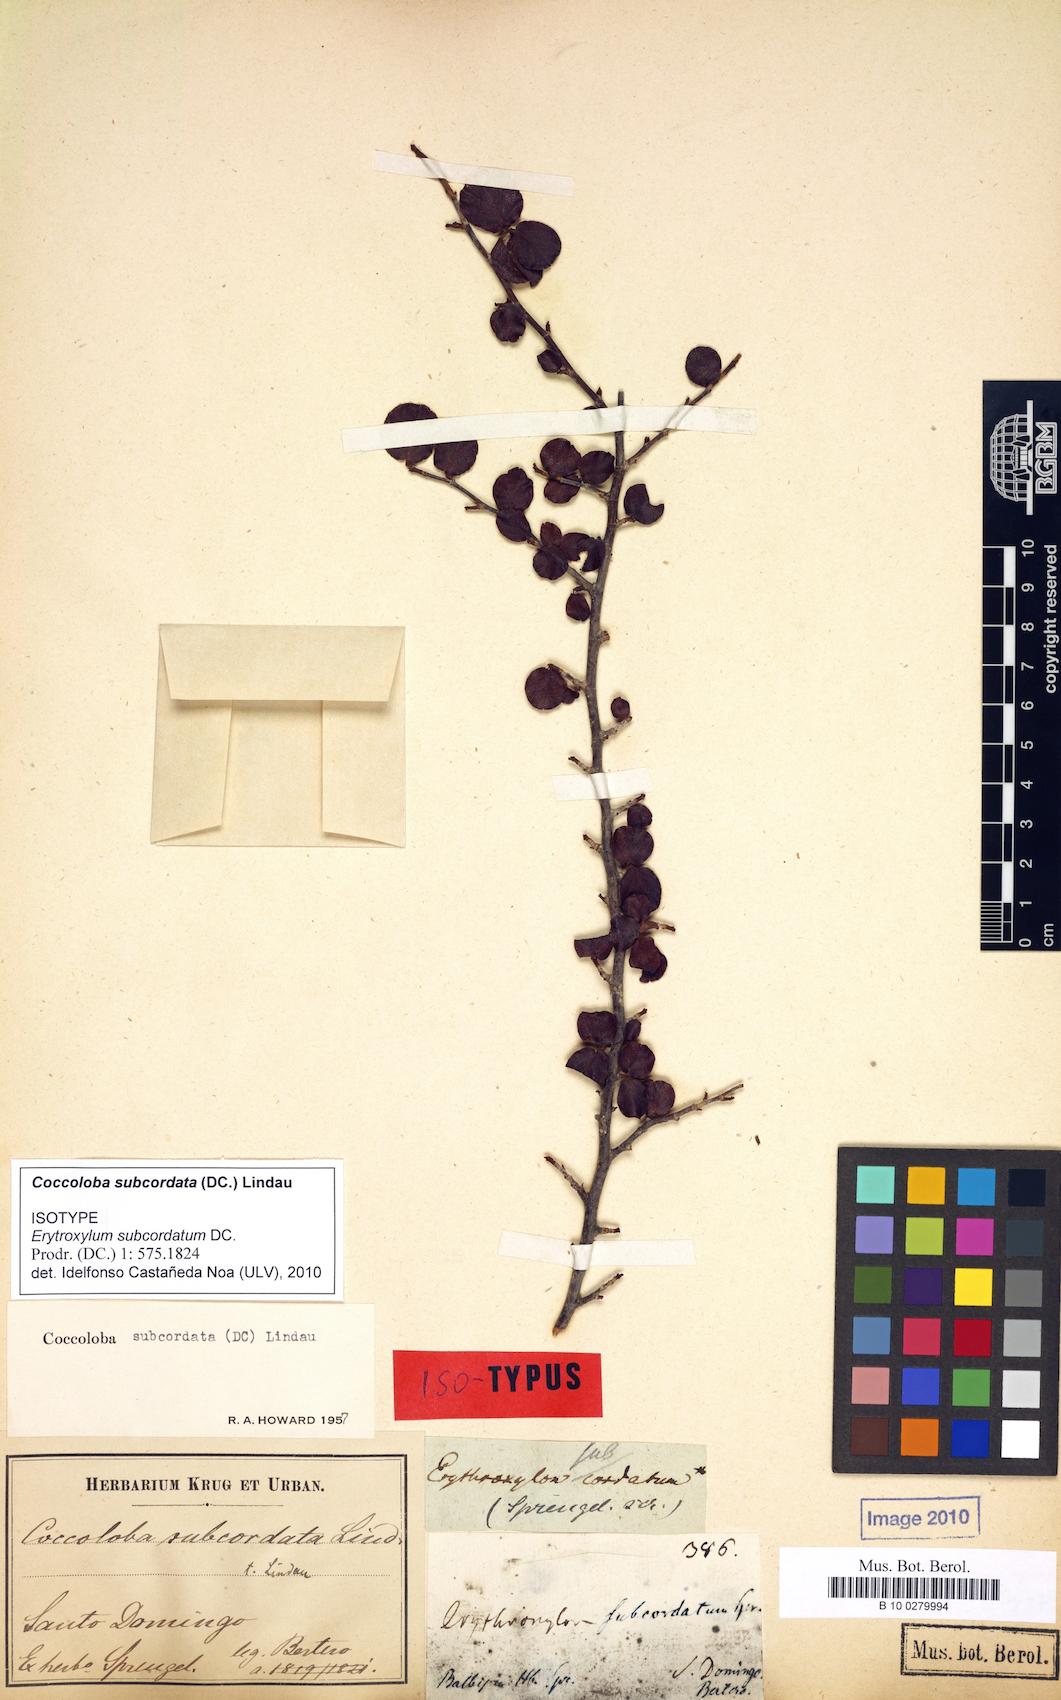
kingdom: Plantae
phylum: Tracheophyta
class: Magnoliopsida
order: Caryophyllales
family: Polygonaceae
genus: Coccoloba
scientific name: Coccoloba subcordata
